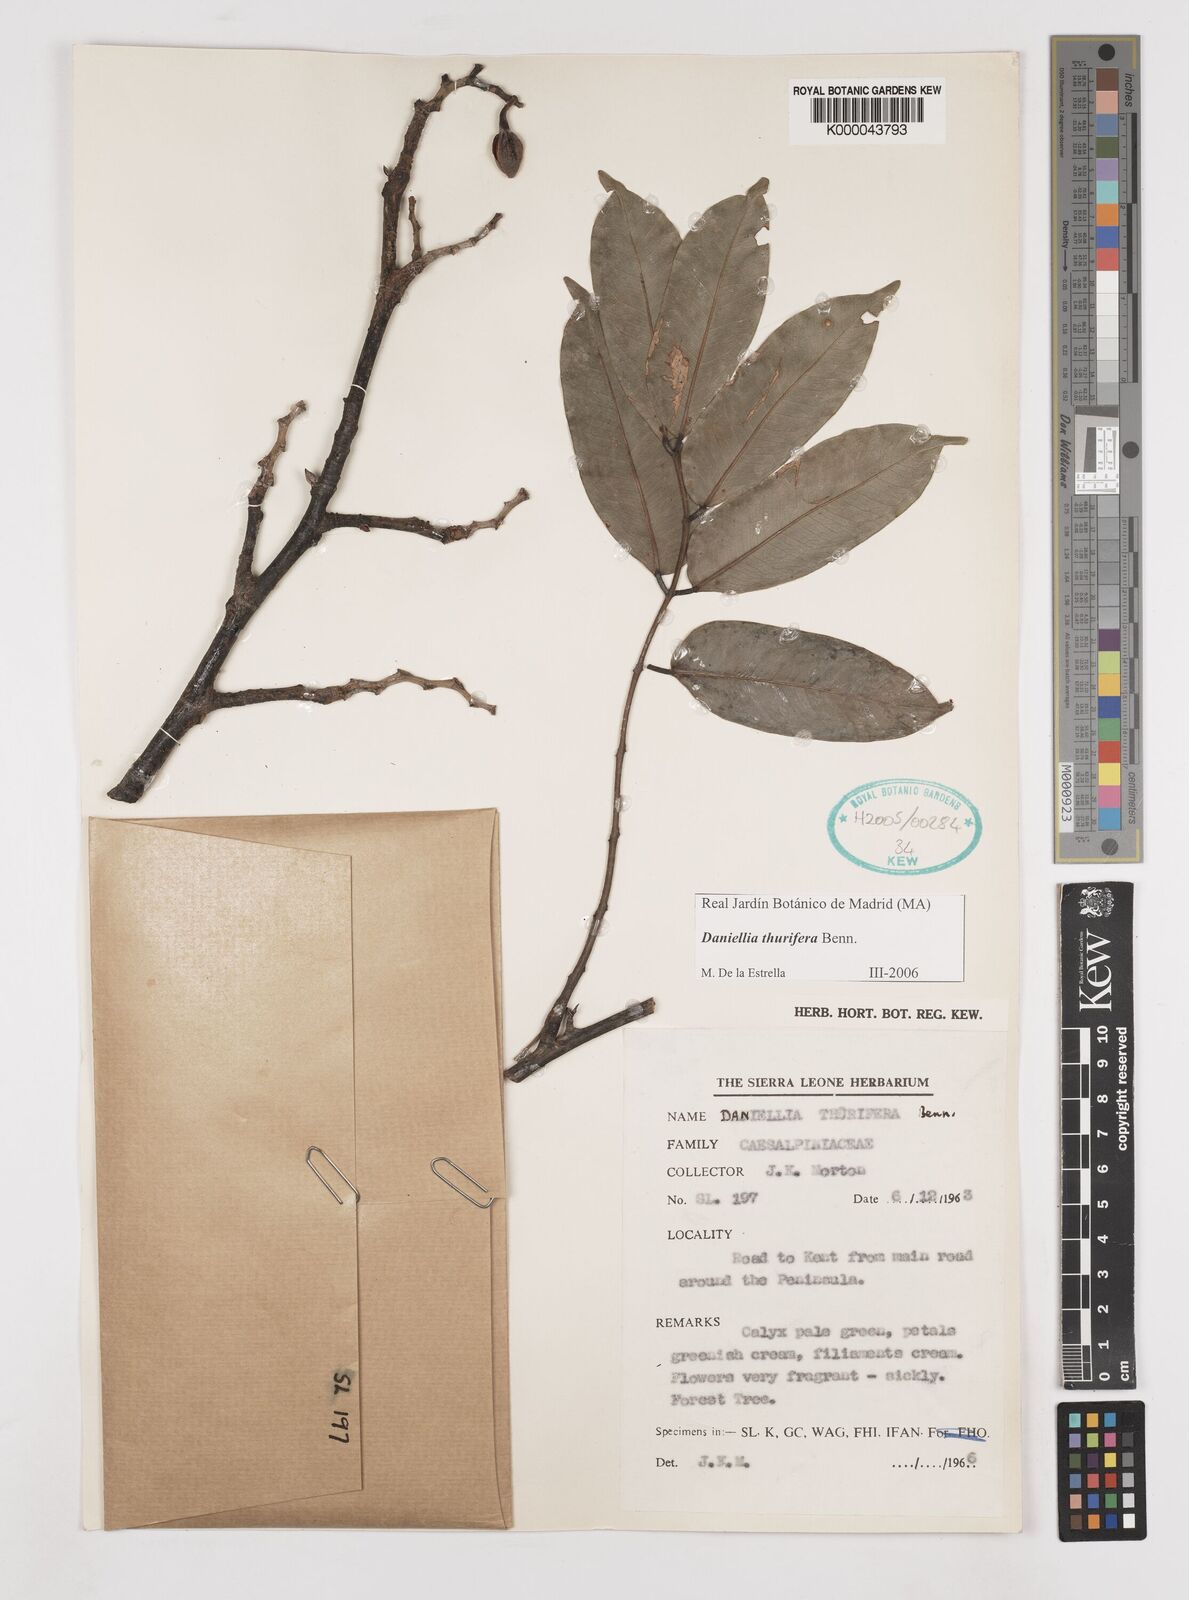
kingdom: Plantae
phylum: Tracheophyta
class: Magnoliopsida
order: Fabales
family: Fabaceae
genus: Daniellia
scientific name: Daniellia thurifera
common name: Sudan copal
